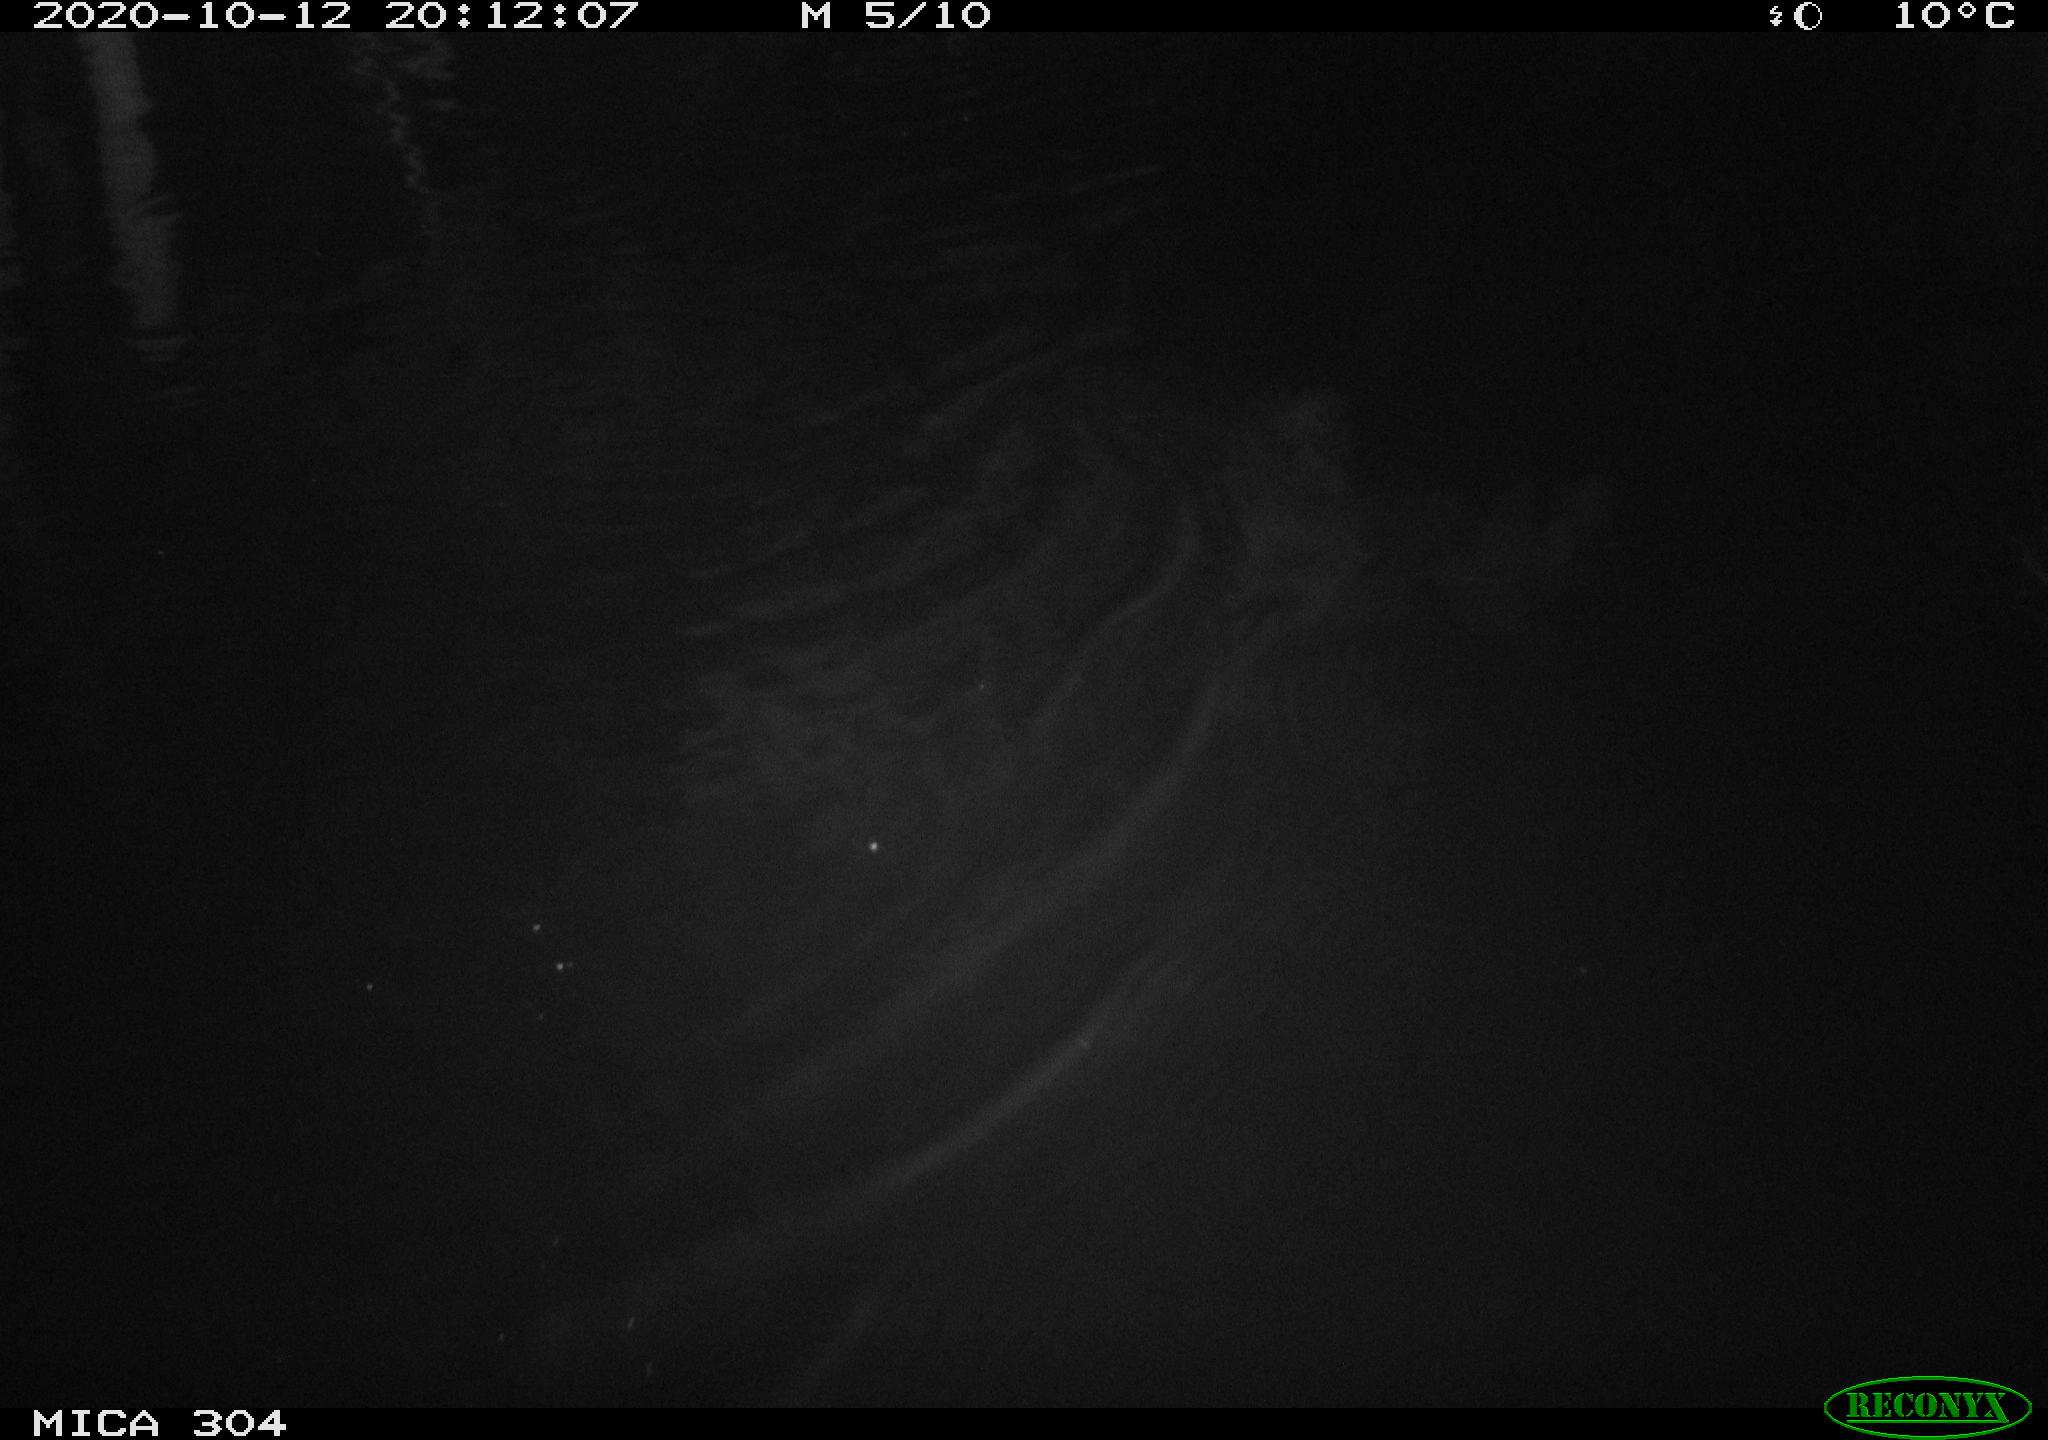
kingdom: Animalia
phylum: Chordata
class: Mammalia
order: Rodentia
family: Cricetidae
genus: Ondatra
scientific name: Ondatra zibethicus
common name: Muskrat
